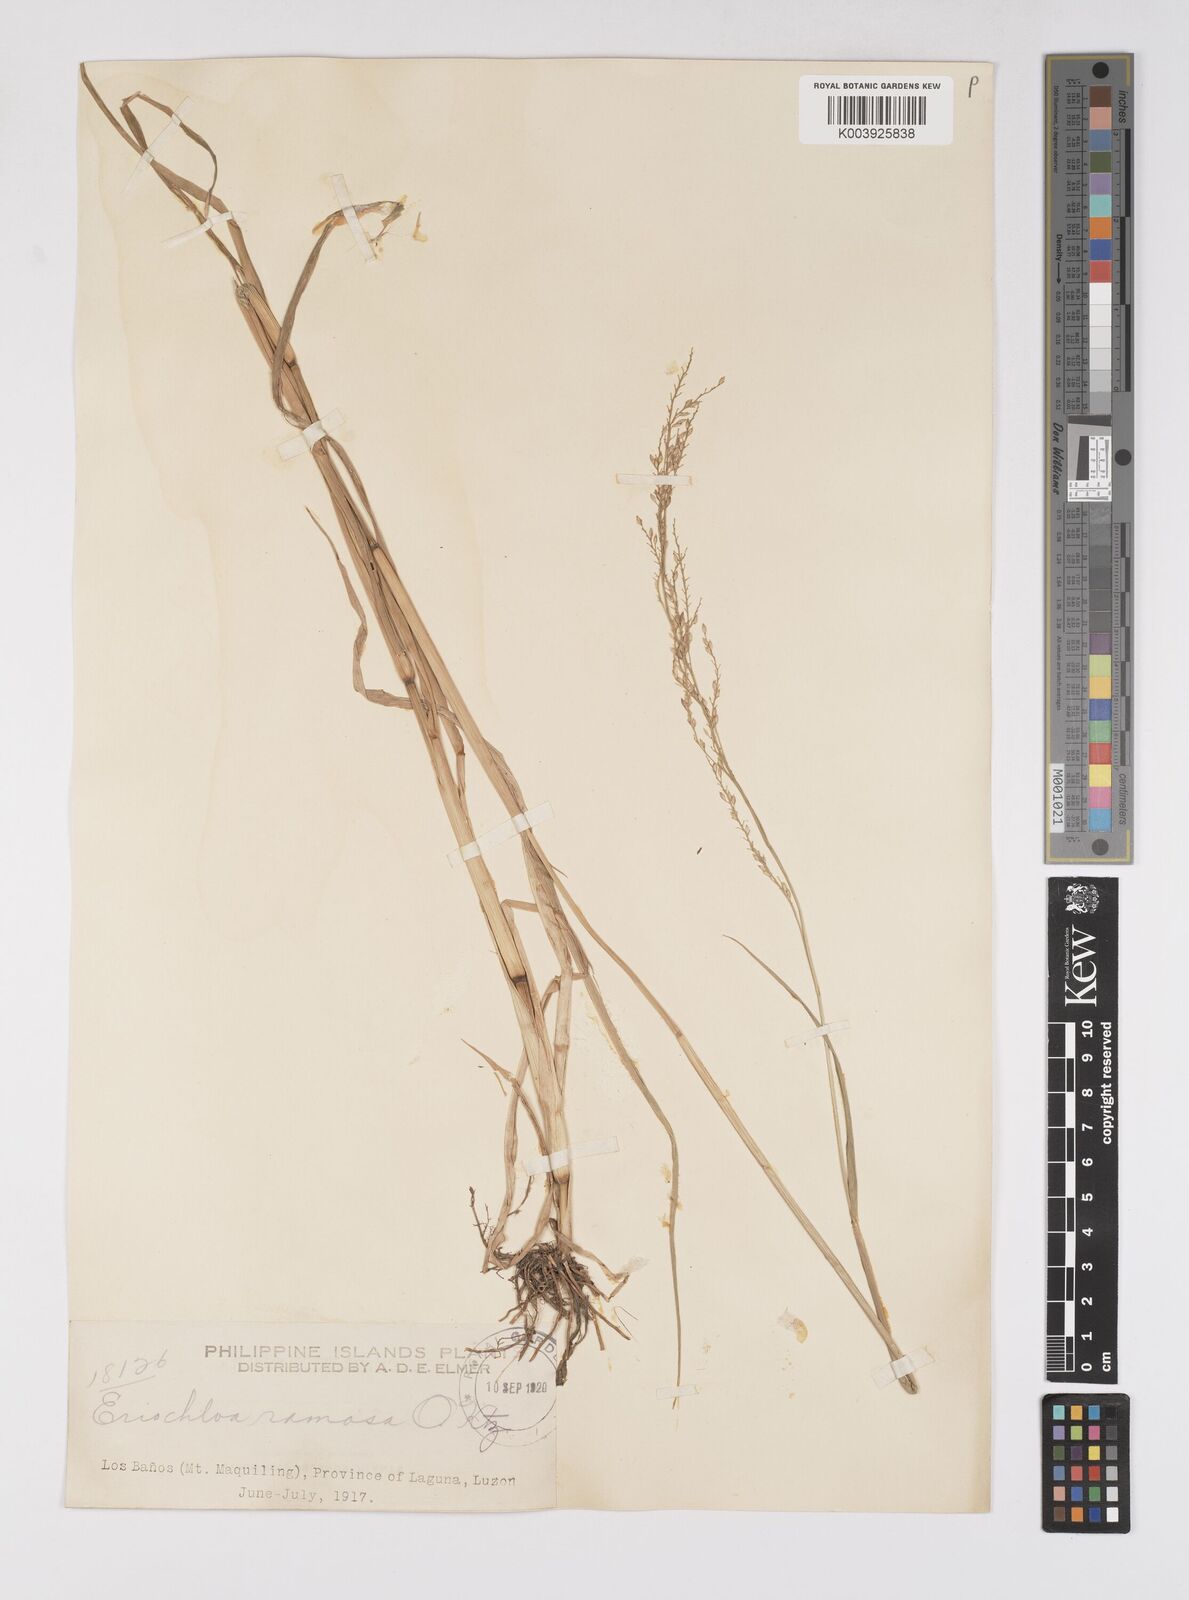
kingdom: Plantae
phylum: Tracheophyta
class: Liliopsida
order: Poales
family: Poaceae
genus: Eriochloa
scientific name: Eriochloa procera
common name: Spring grass
